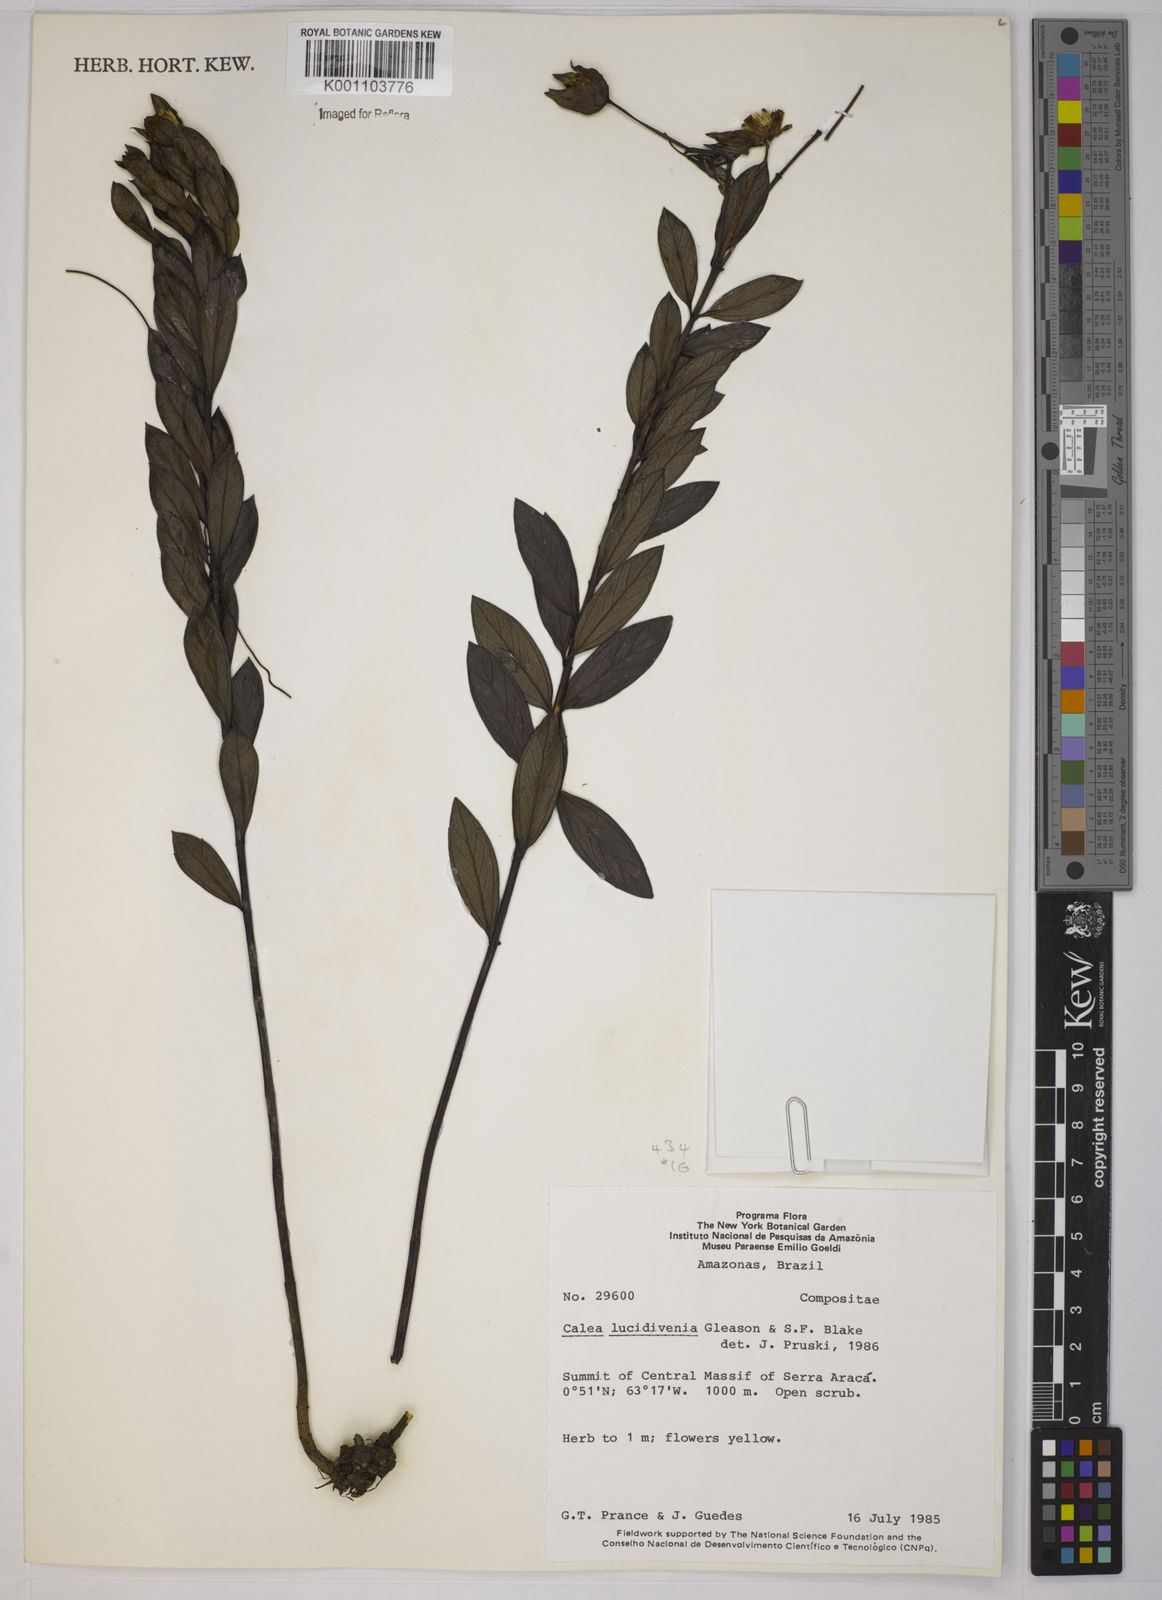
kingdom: Plantae
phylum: Tracheophyta
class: Magnoliopsida
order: Asterales
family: Asteraceae
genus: Calea
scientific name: Calea lucidivenia
